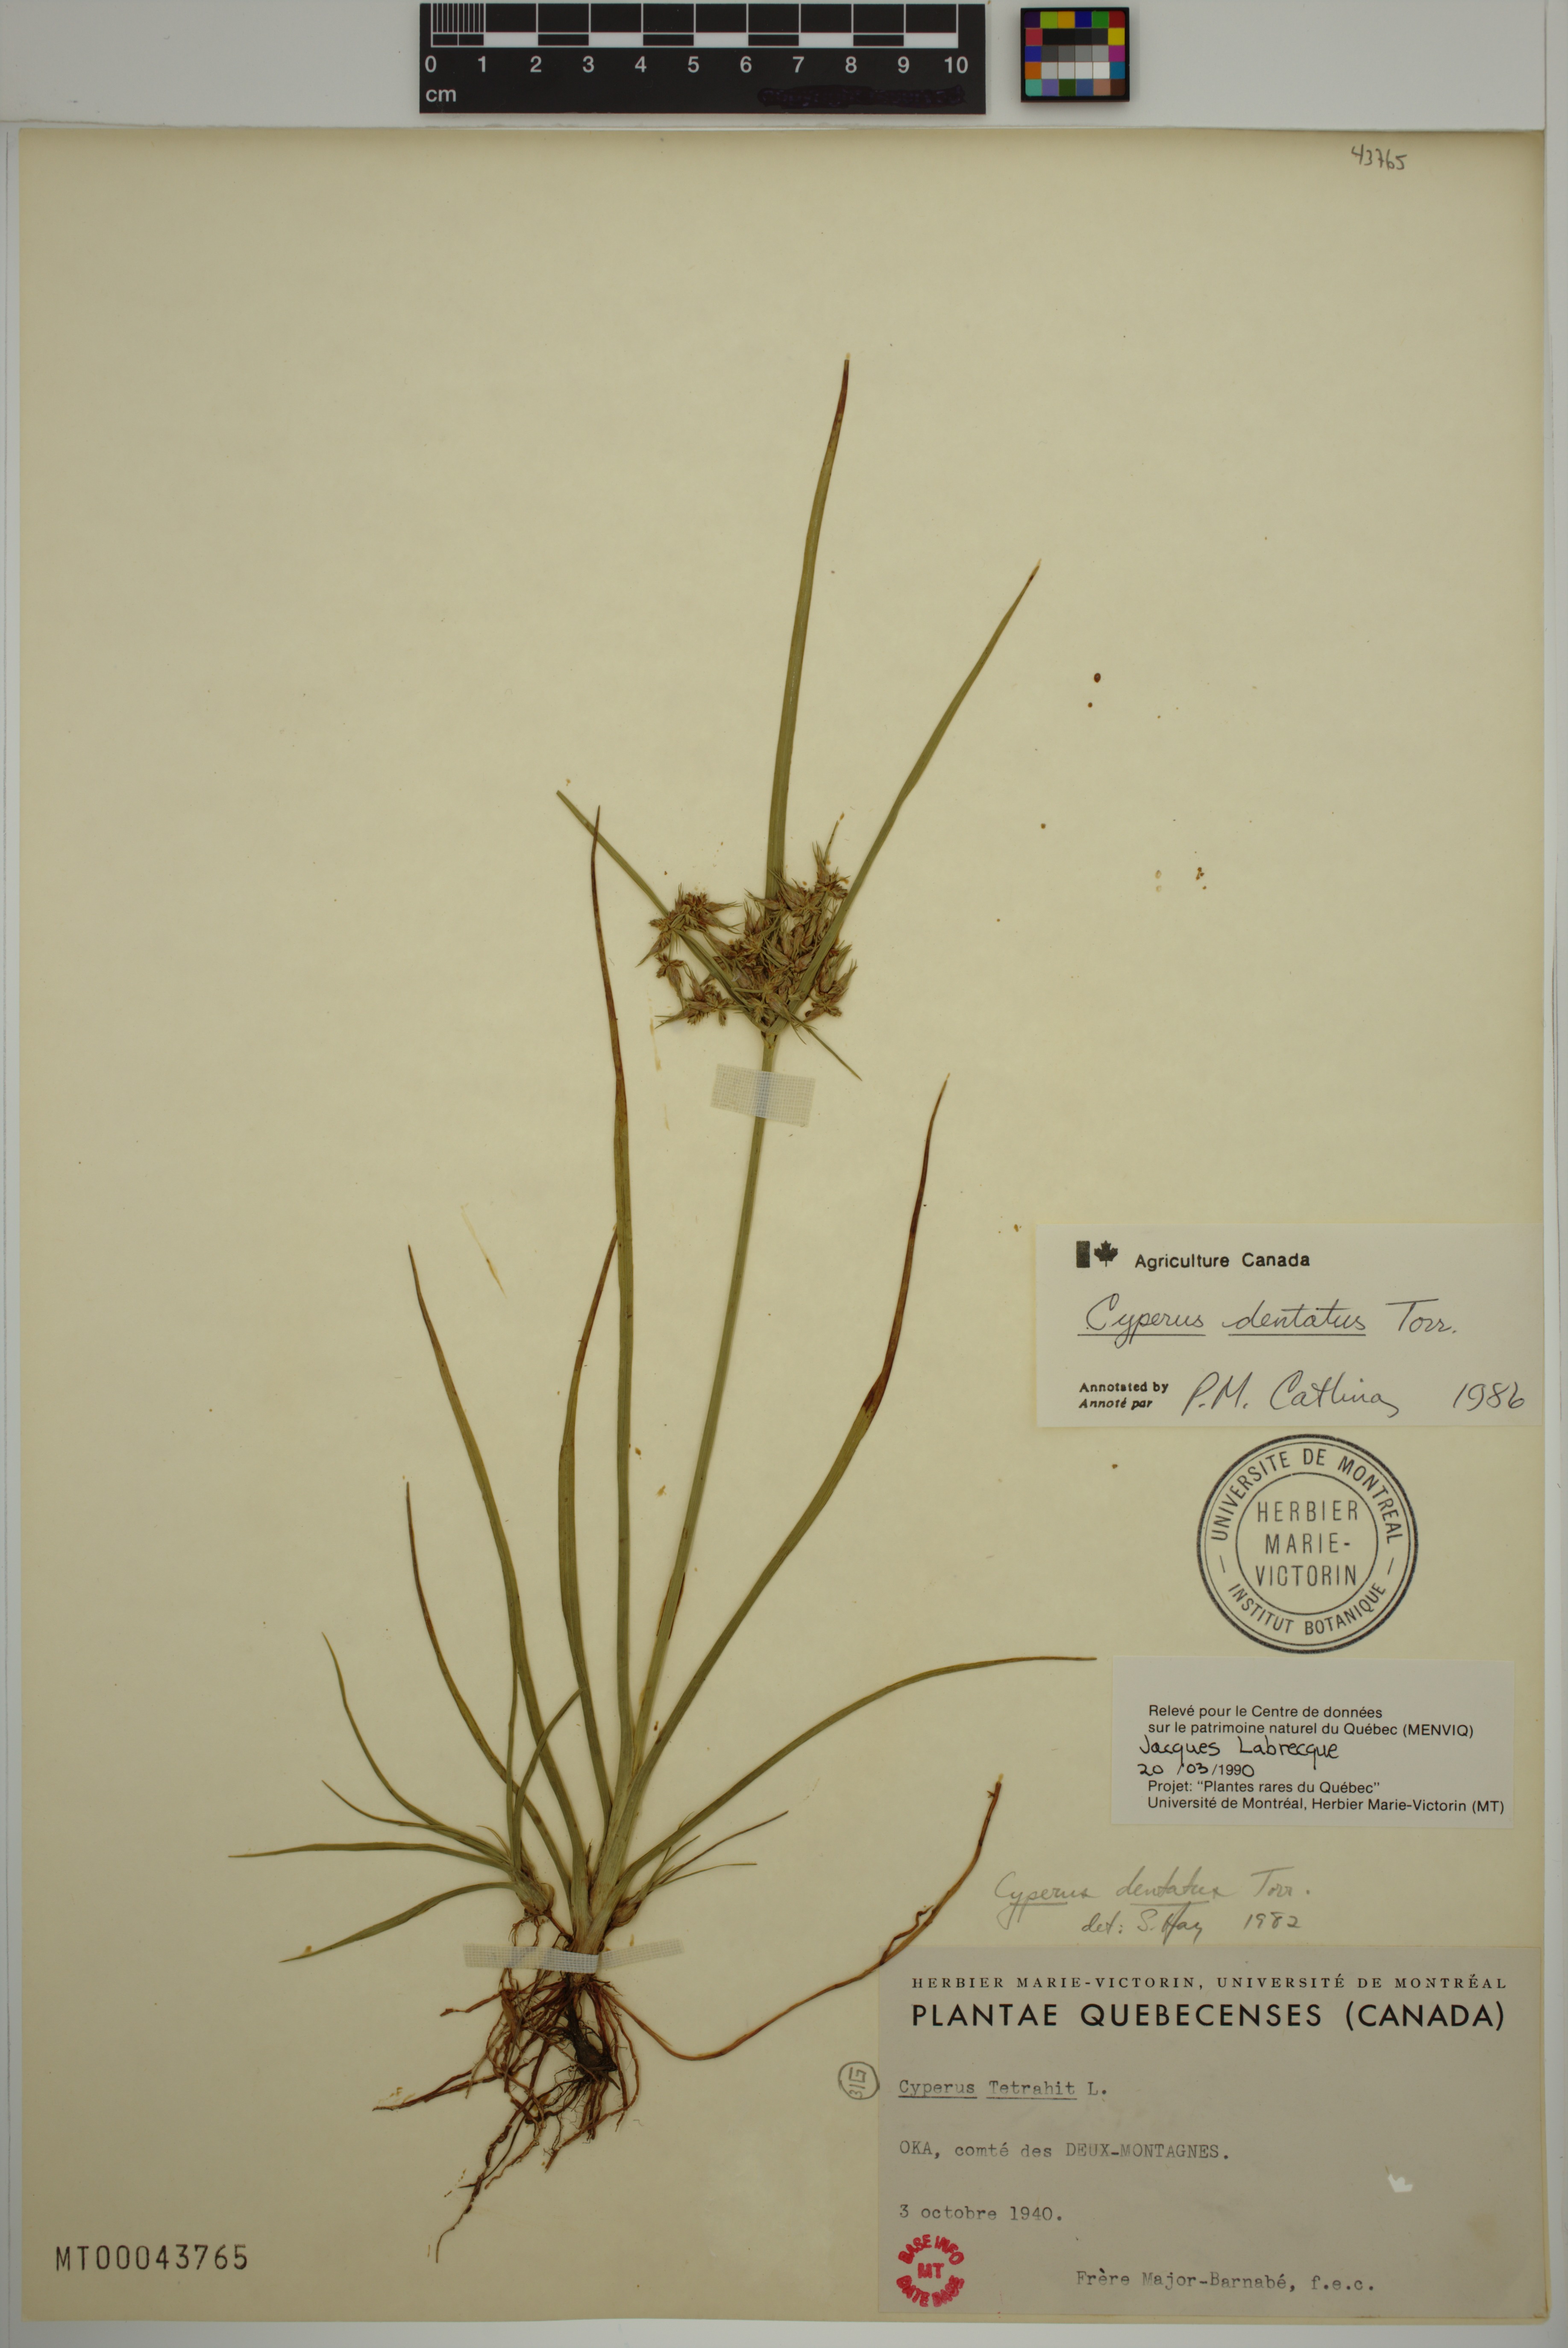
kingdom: Plantae
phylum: Tracheophyta
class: Liliopsida
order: Poales
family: Cyperaceae
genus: Cyperus
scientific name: Cyperus dentatus
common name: Dentate umbrella sedge
